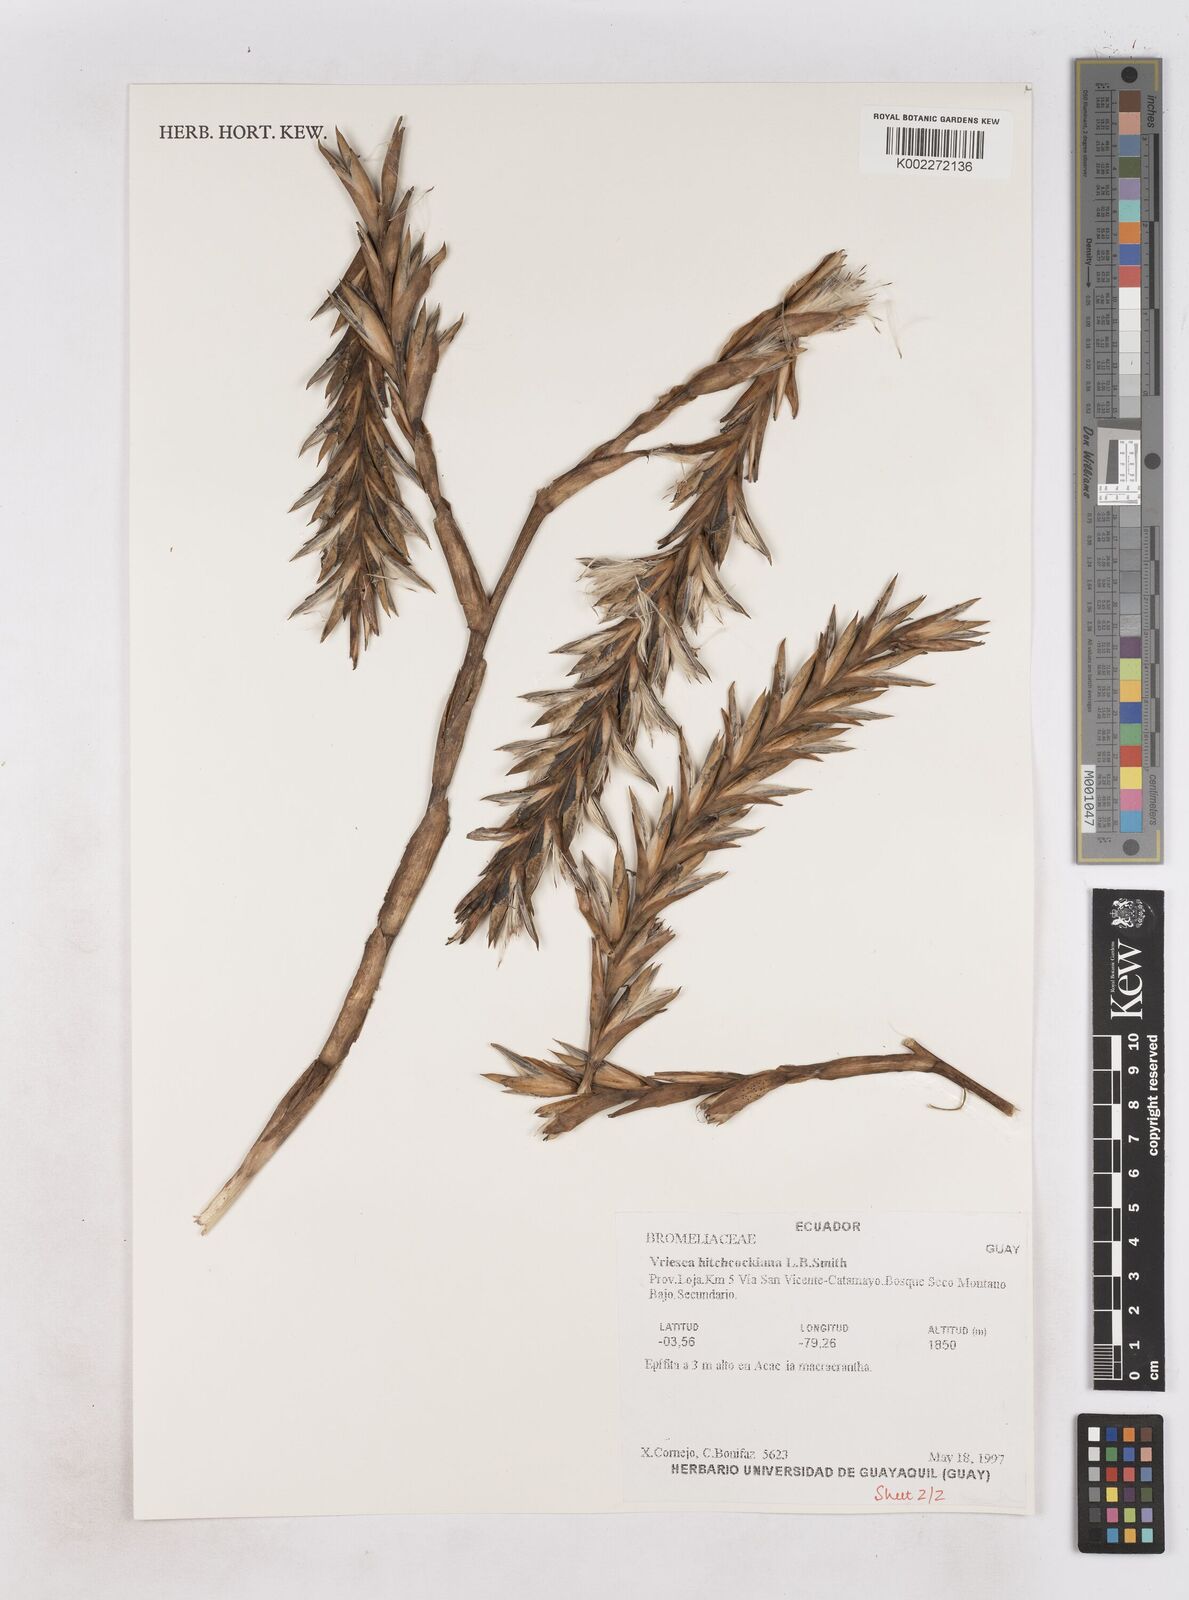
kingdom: Plantae
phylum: Tracheophyta
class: Liliopsida
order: Poales
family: Bromeliaceae
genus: Vriesea
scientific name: Vriesea hitchcockiana
